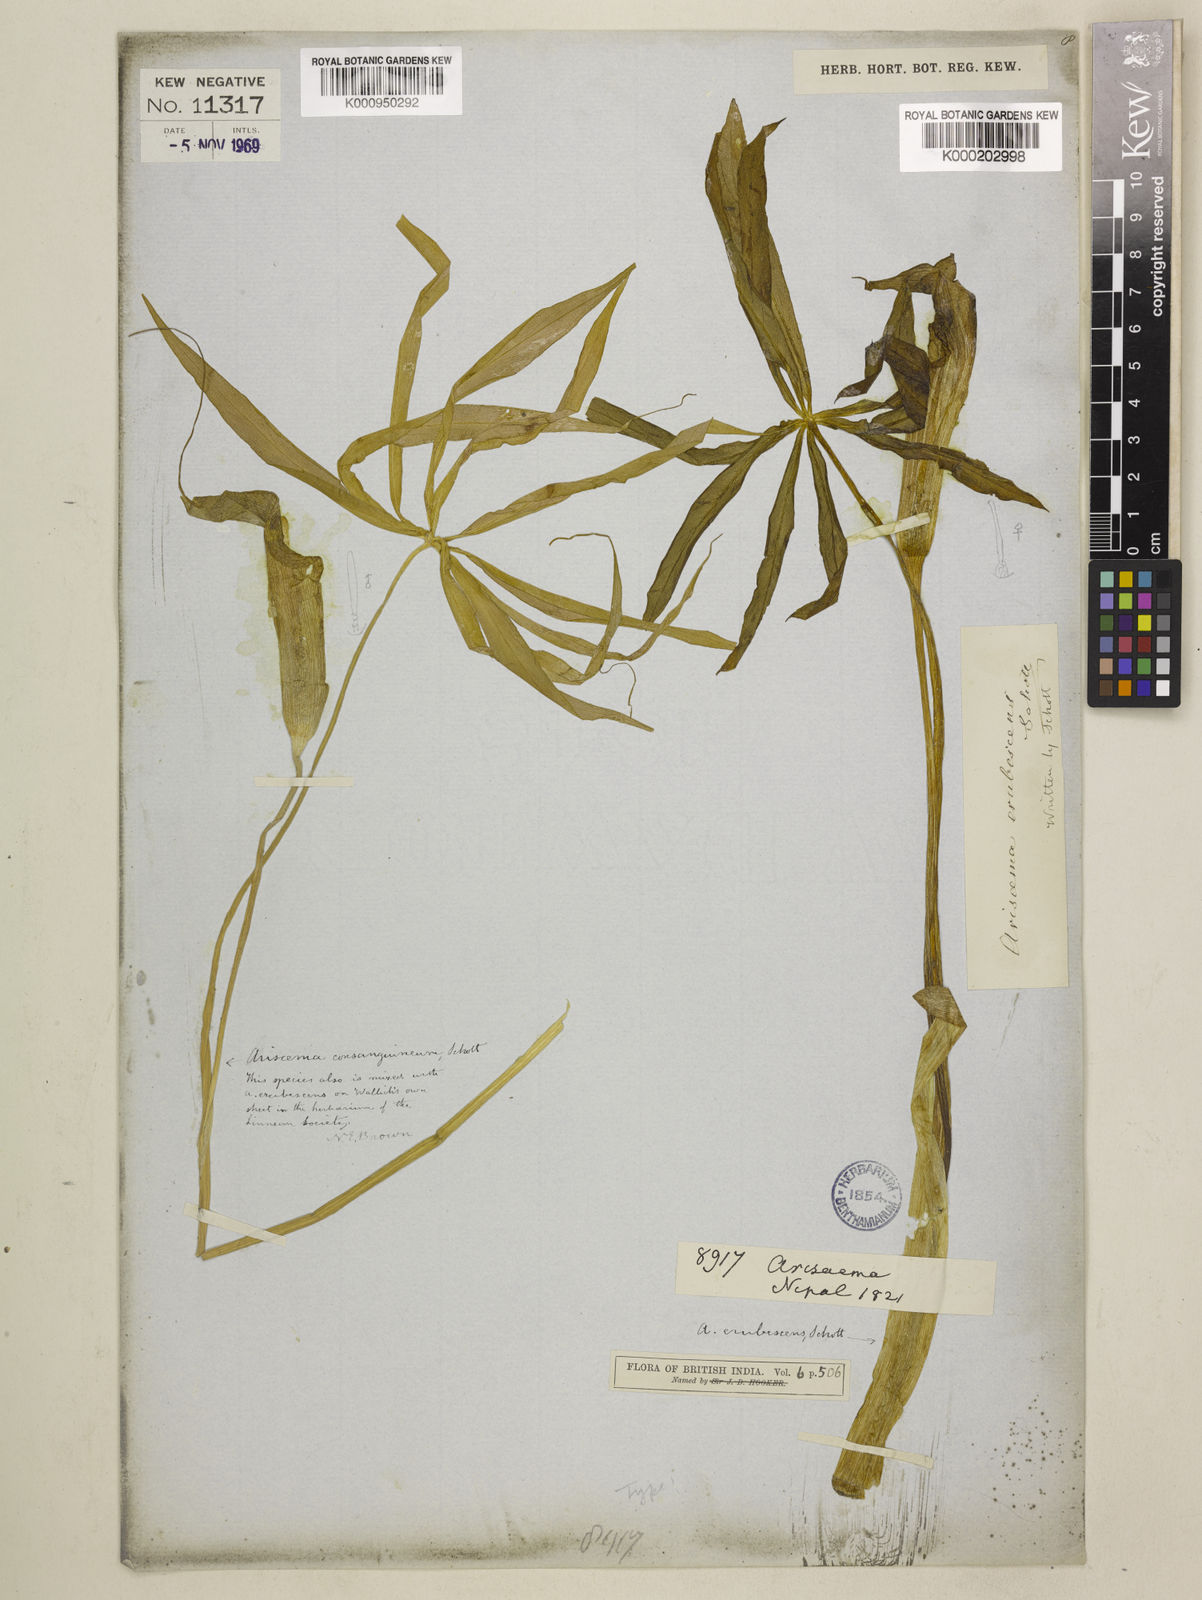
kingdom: Plantae
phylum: Tracheophyta
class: Liliopsida
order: Alismatales
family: Araceae
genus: Arisaema
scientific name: Arisaema erubescens
